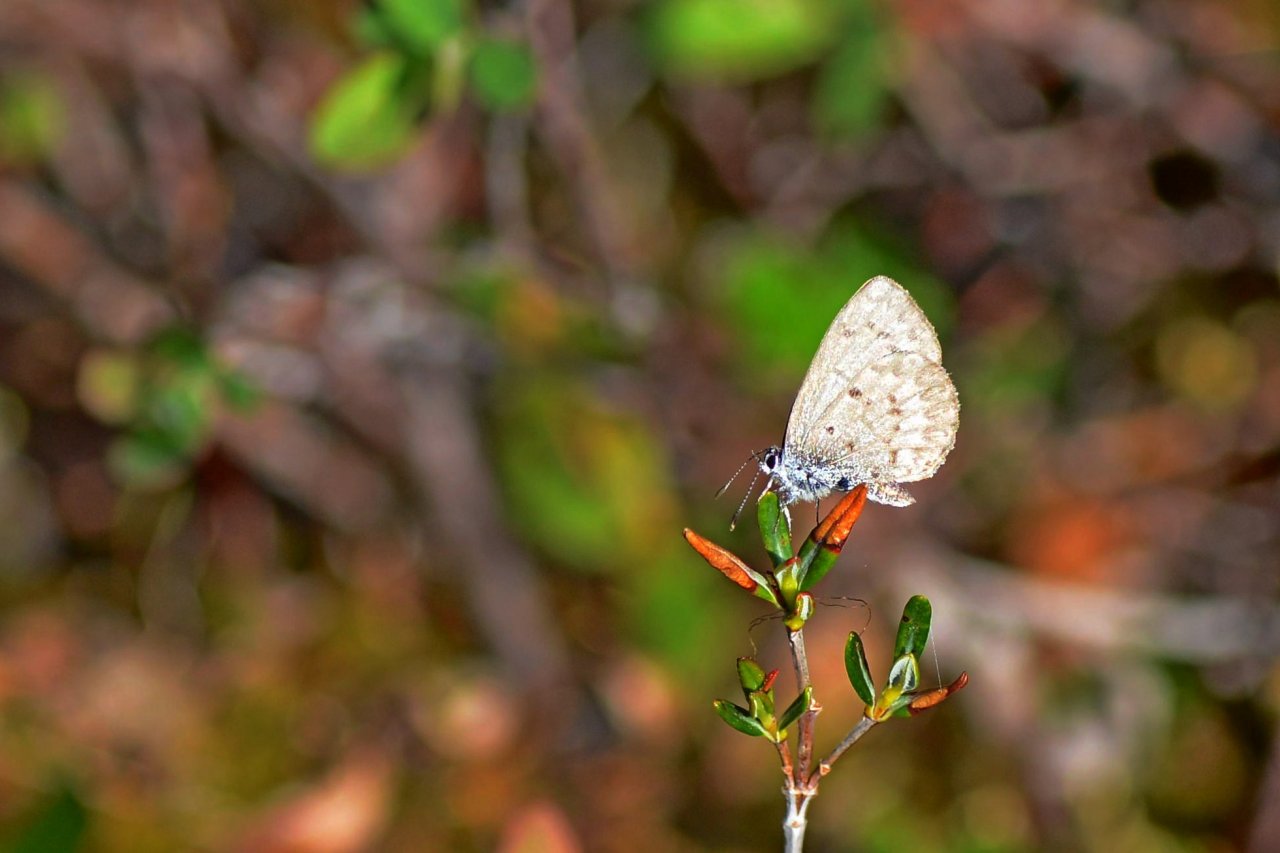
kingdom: Animalia
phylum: Arthropoda
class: Insecta
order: Lepidoptera
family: Lycaenidae
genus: Celastrina
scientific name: Celastrina lucia
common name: Northern Spring Azure
